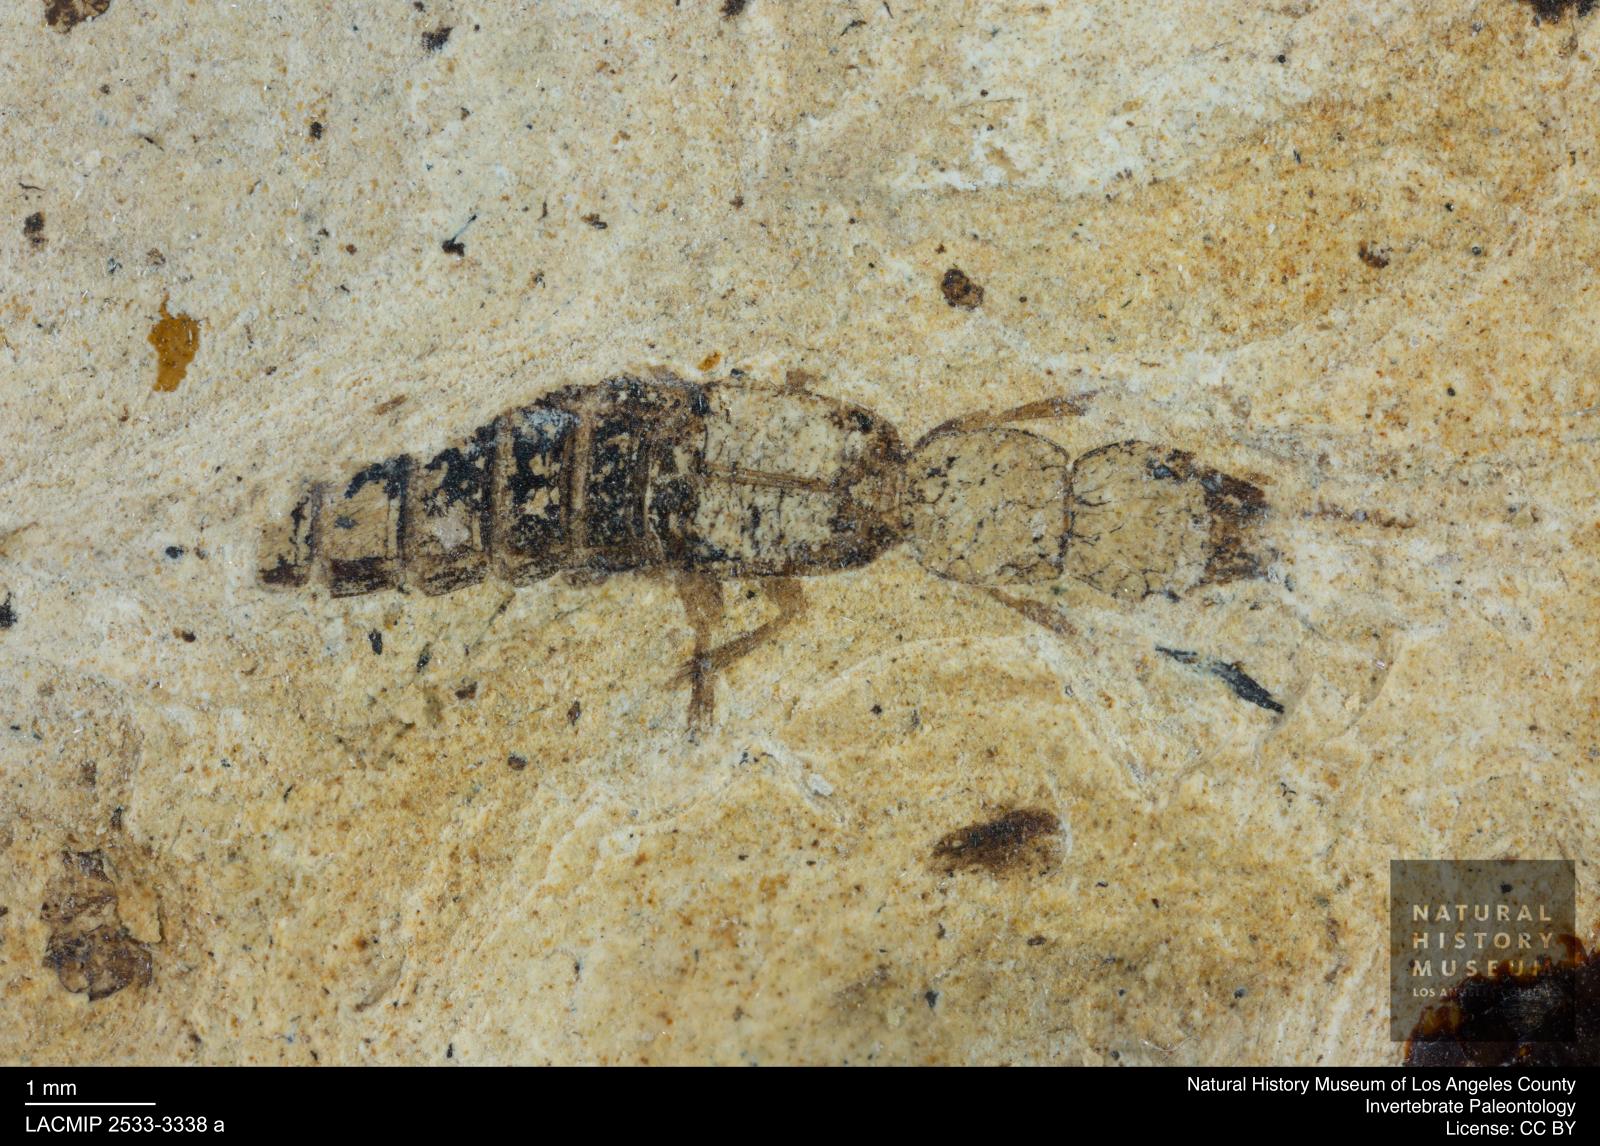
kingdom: Animalia
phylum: Arthropoda
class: Insecta
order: Coleoptera
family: Staphylinidae
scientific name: Staphylinidae
